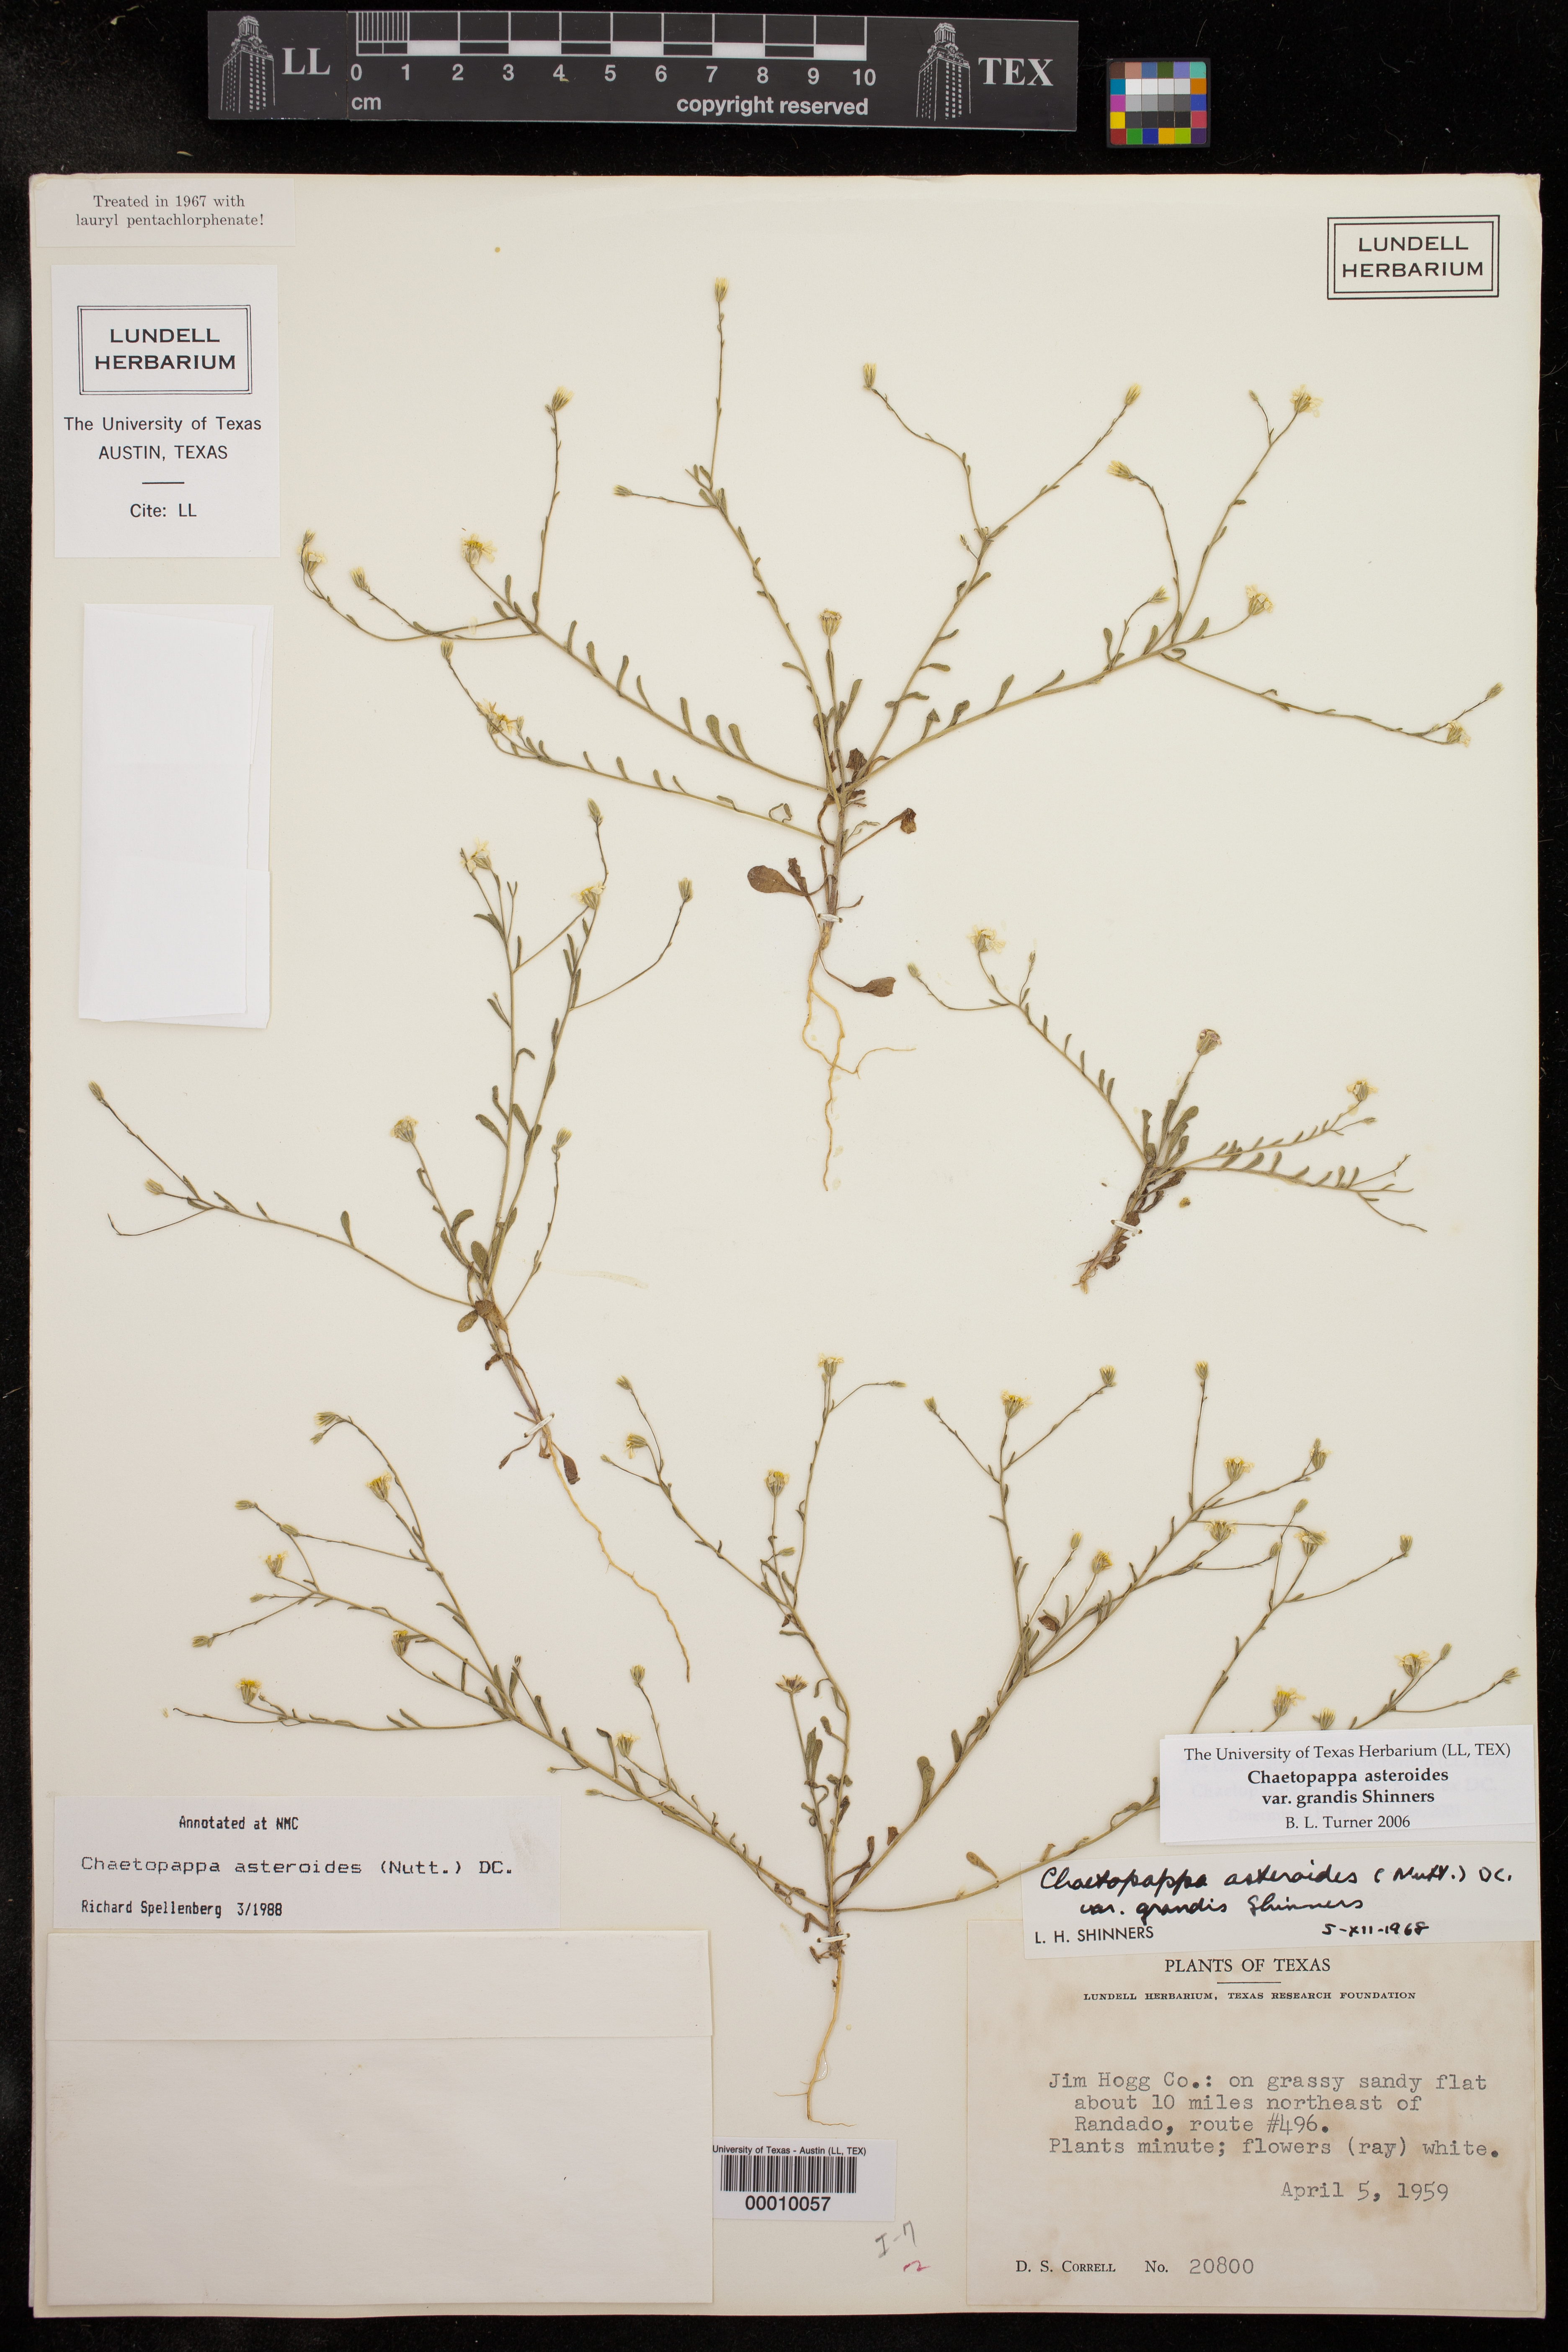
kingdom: Plantae
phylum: Tracheophyta
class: Magnoliopsida
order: Asterales
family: Asteraceae
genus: Chaetopappa
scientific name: Chaetopappa modesta
